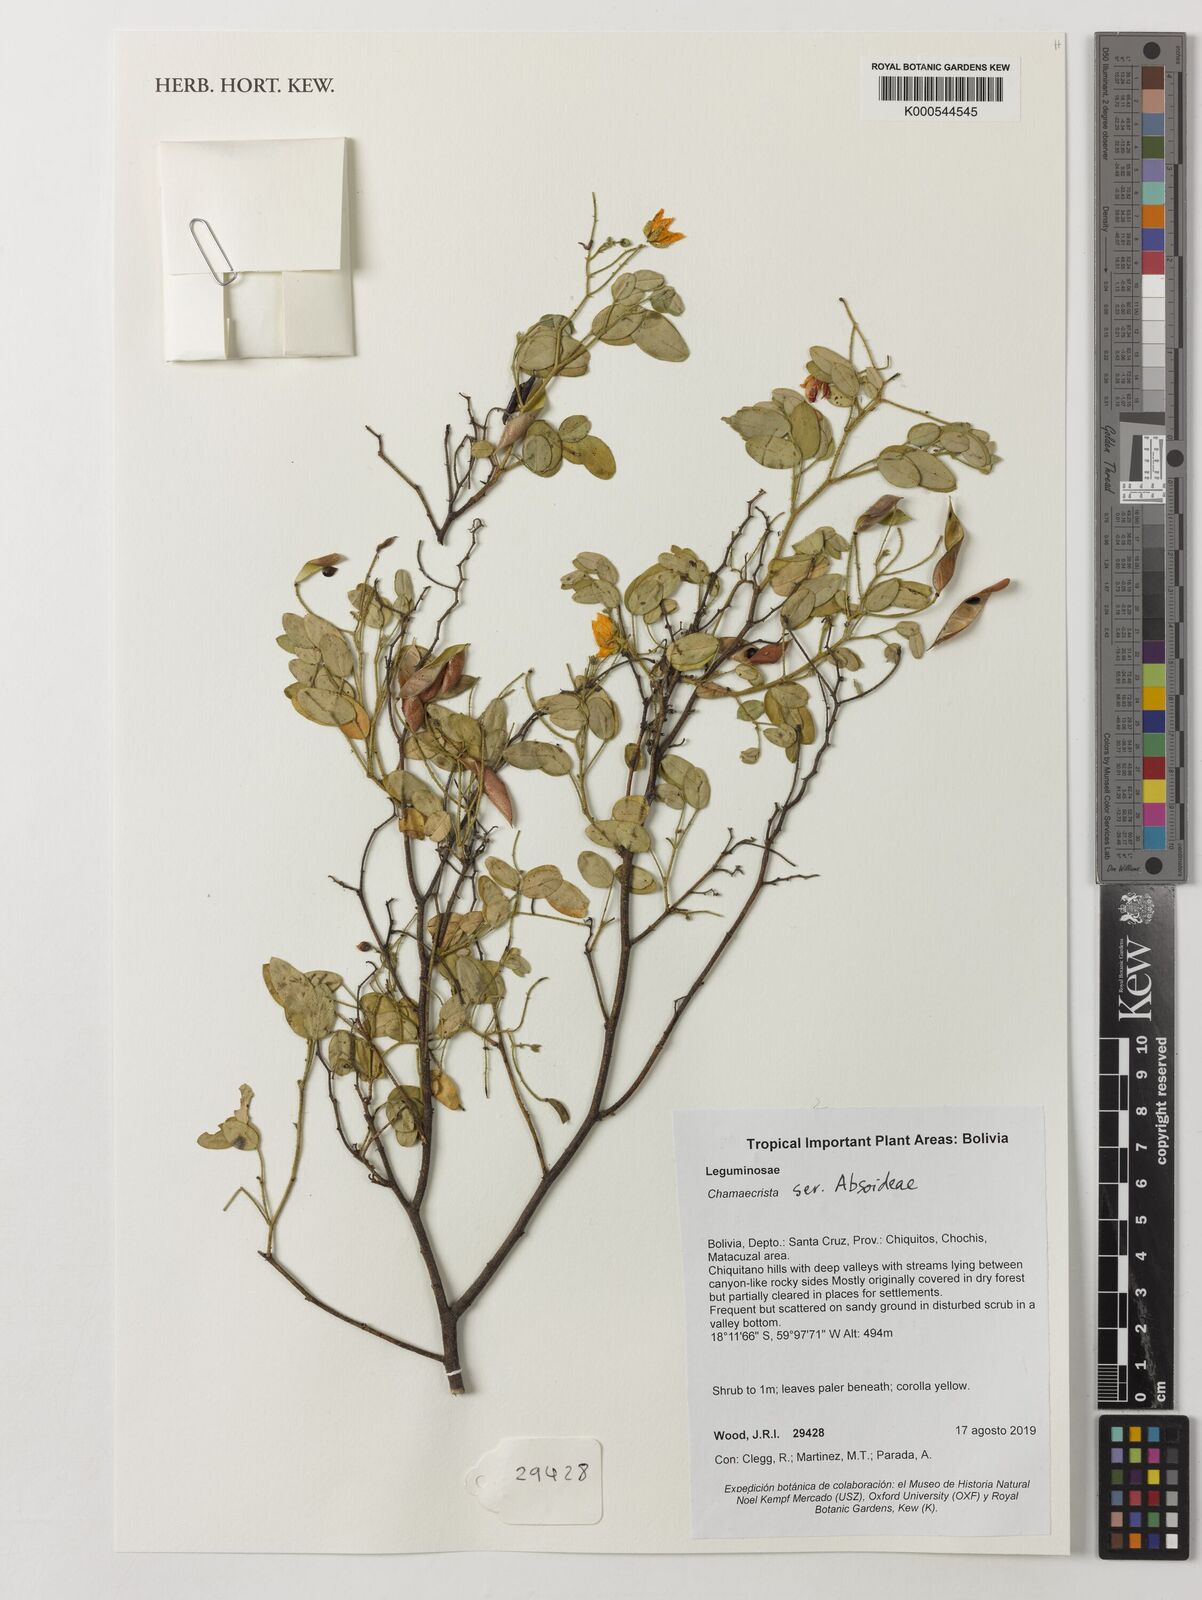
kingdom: Plantae
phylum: Tracheophyta
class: Magnoliopsida
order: Fabales
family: Fabaceae
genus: Chamaecrista
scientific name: Chamaecrista
